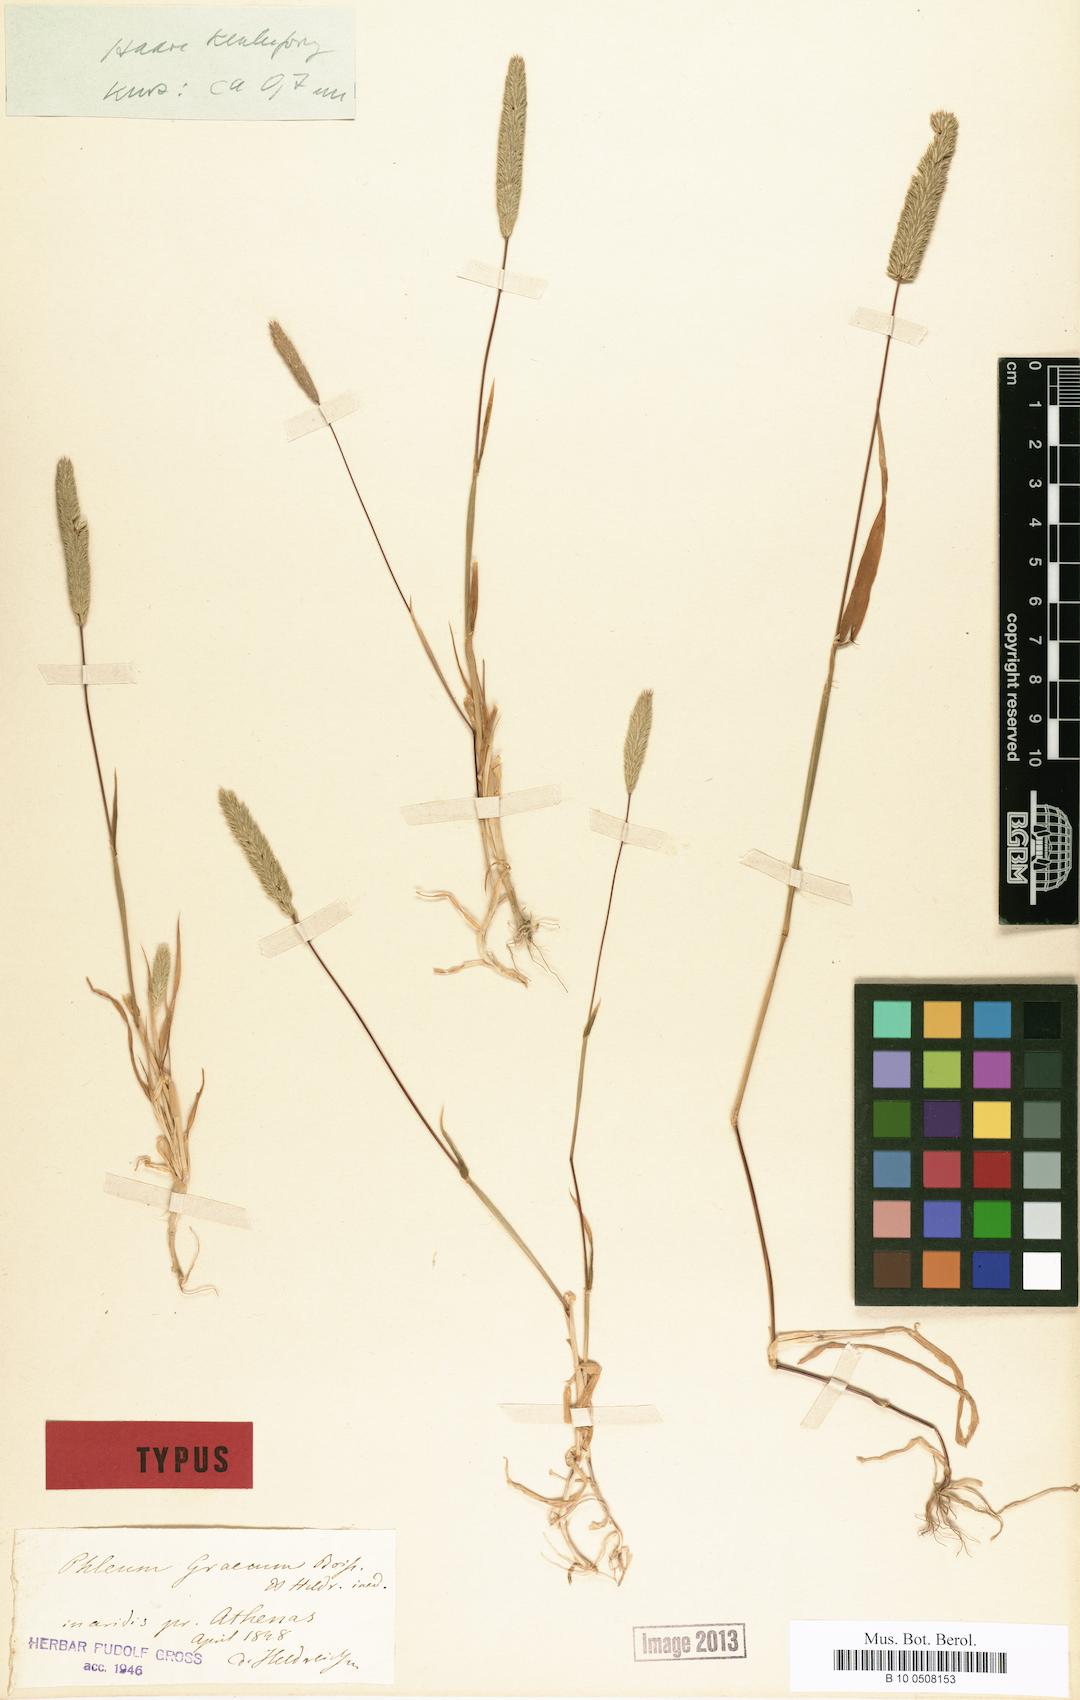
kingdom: Plantae
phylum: Tracheophyta
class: Liliopsida
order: Poales
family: Poaceae
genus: Phleum
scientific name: Phleum exaratum
